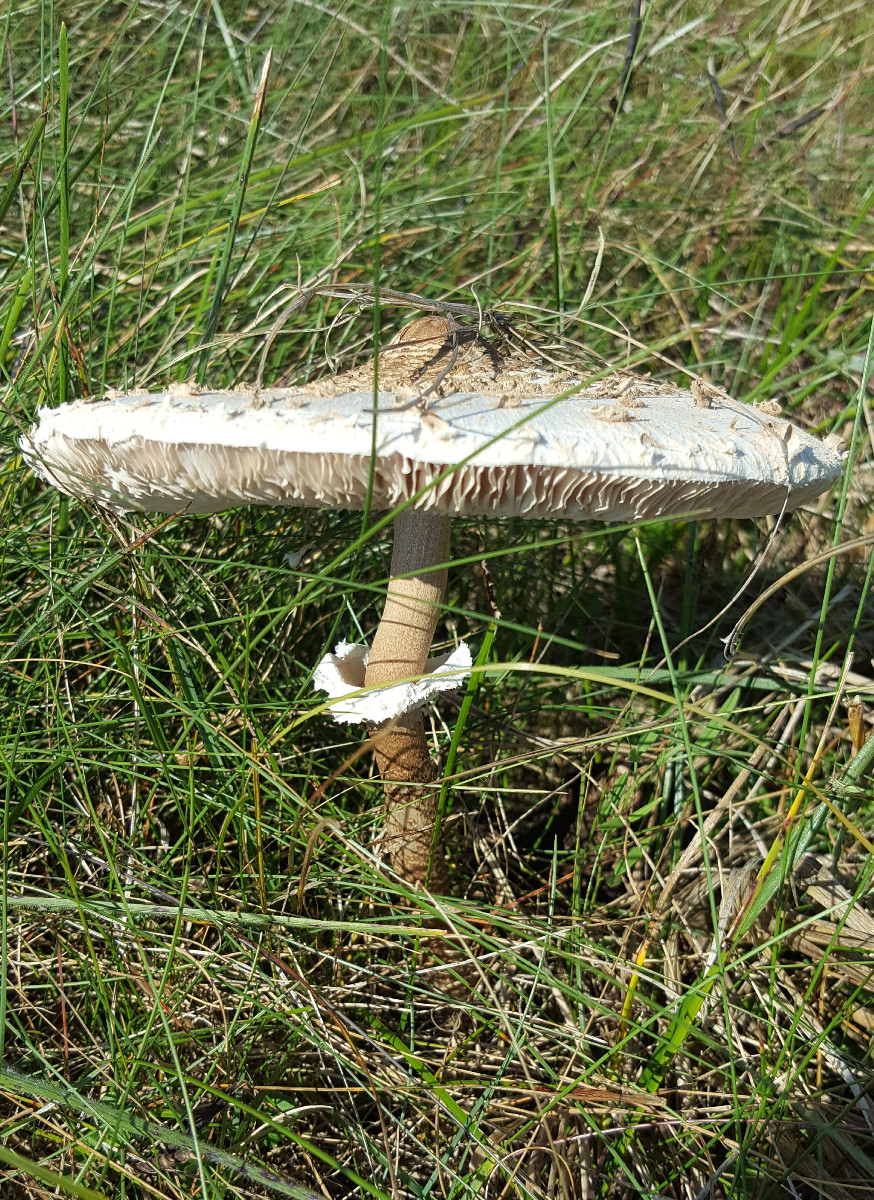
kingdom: Fungi
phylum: Basidiomycota
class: Agaricomycetes
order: Agaricales
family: Agaricaceae
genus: Macrolepiota
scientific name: Macrolepiota procera
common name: stor kæmpeparasolhat
